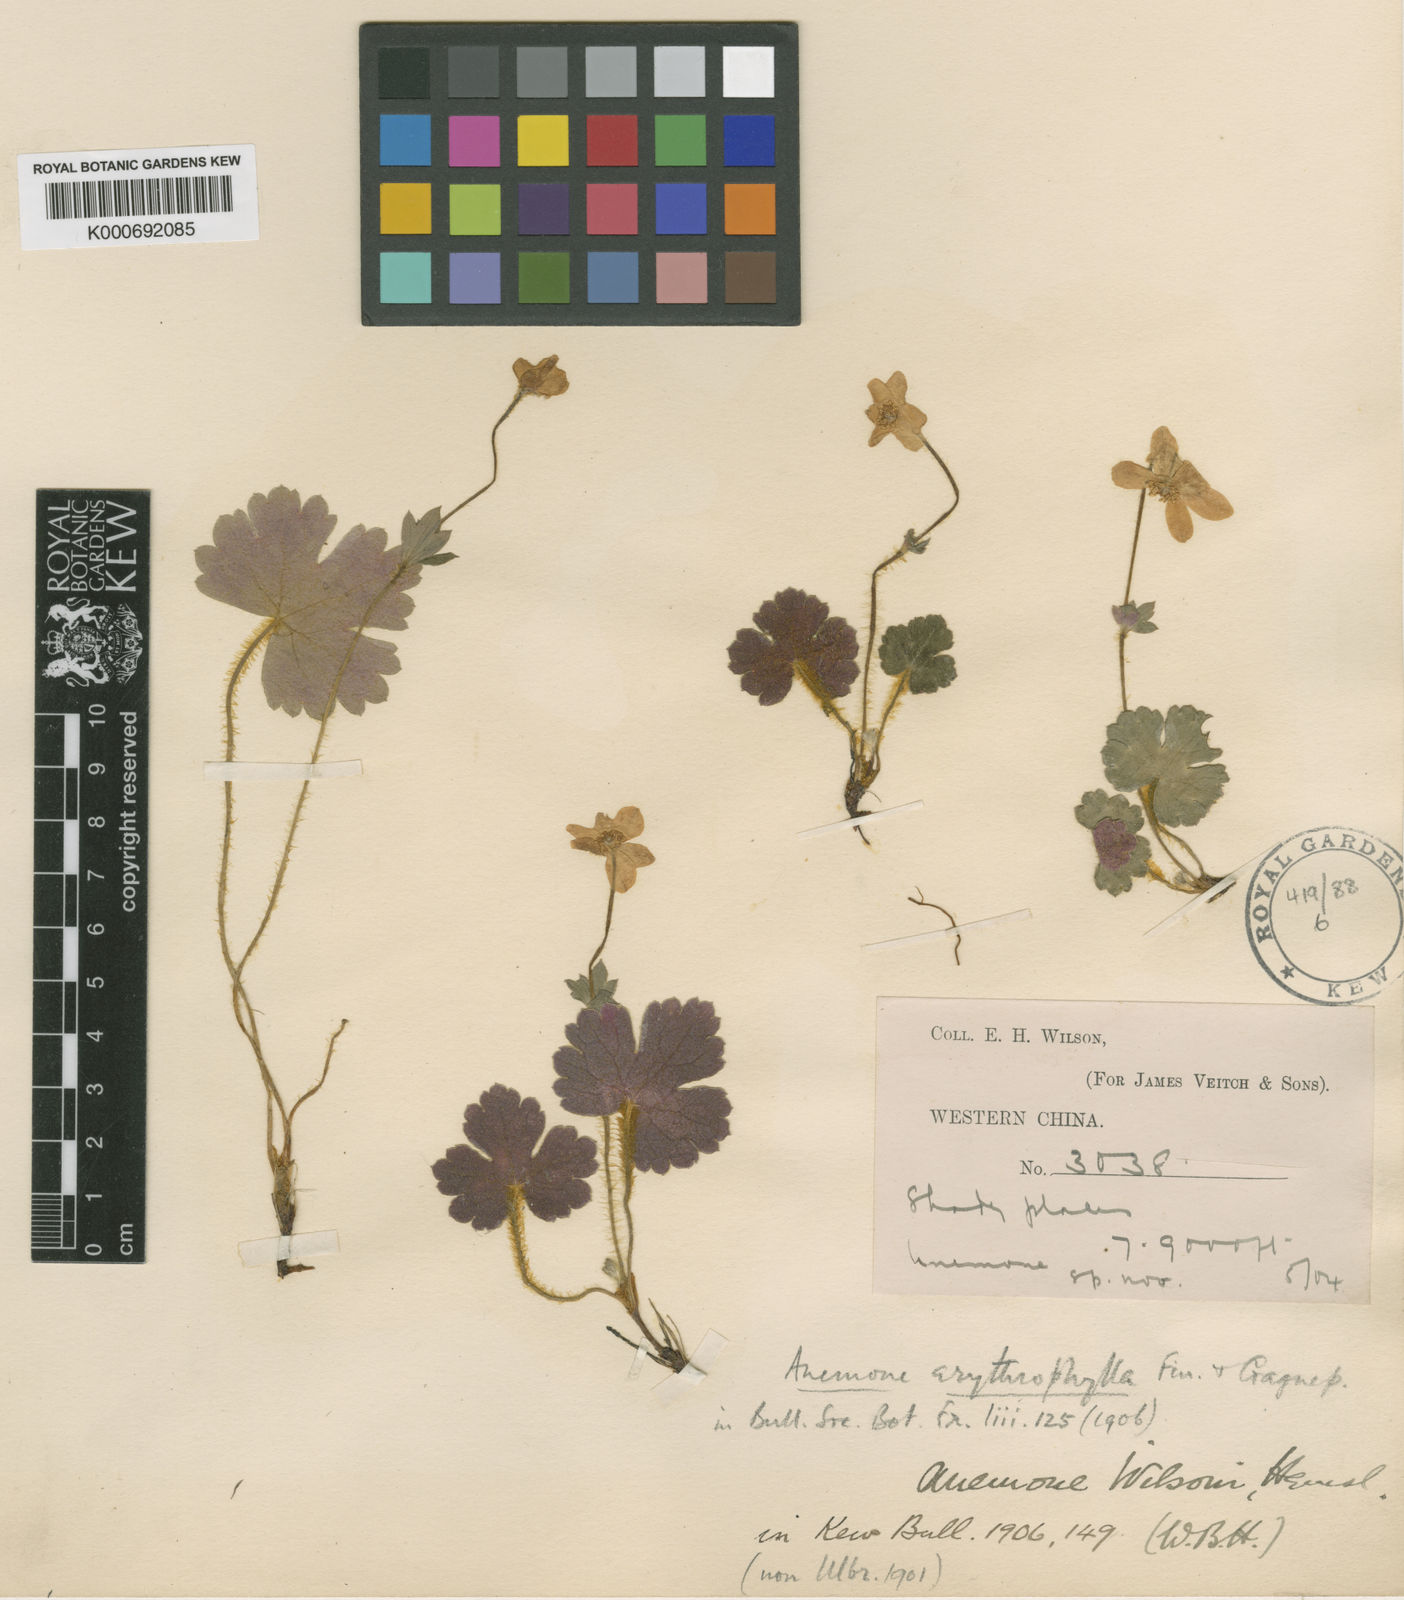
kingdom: Plantae
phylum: Tracheophyta
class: Magnoliopsida
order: Ranunculales
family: Ranunculaceae
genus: Anemonastrum
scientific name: Anemonastrum baicalense
